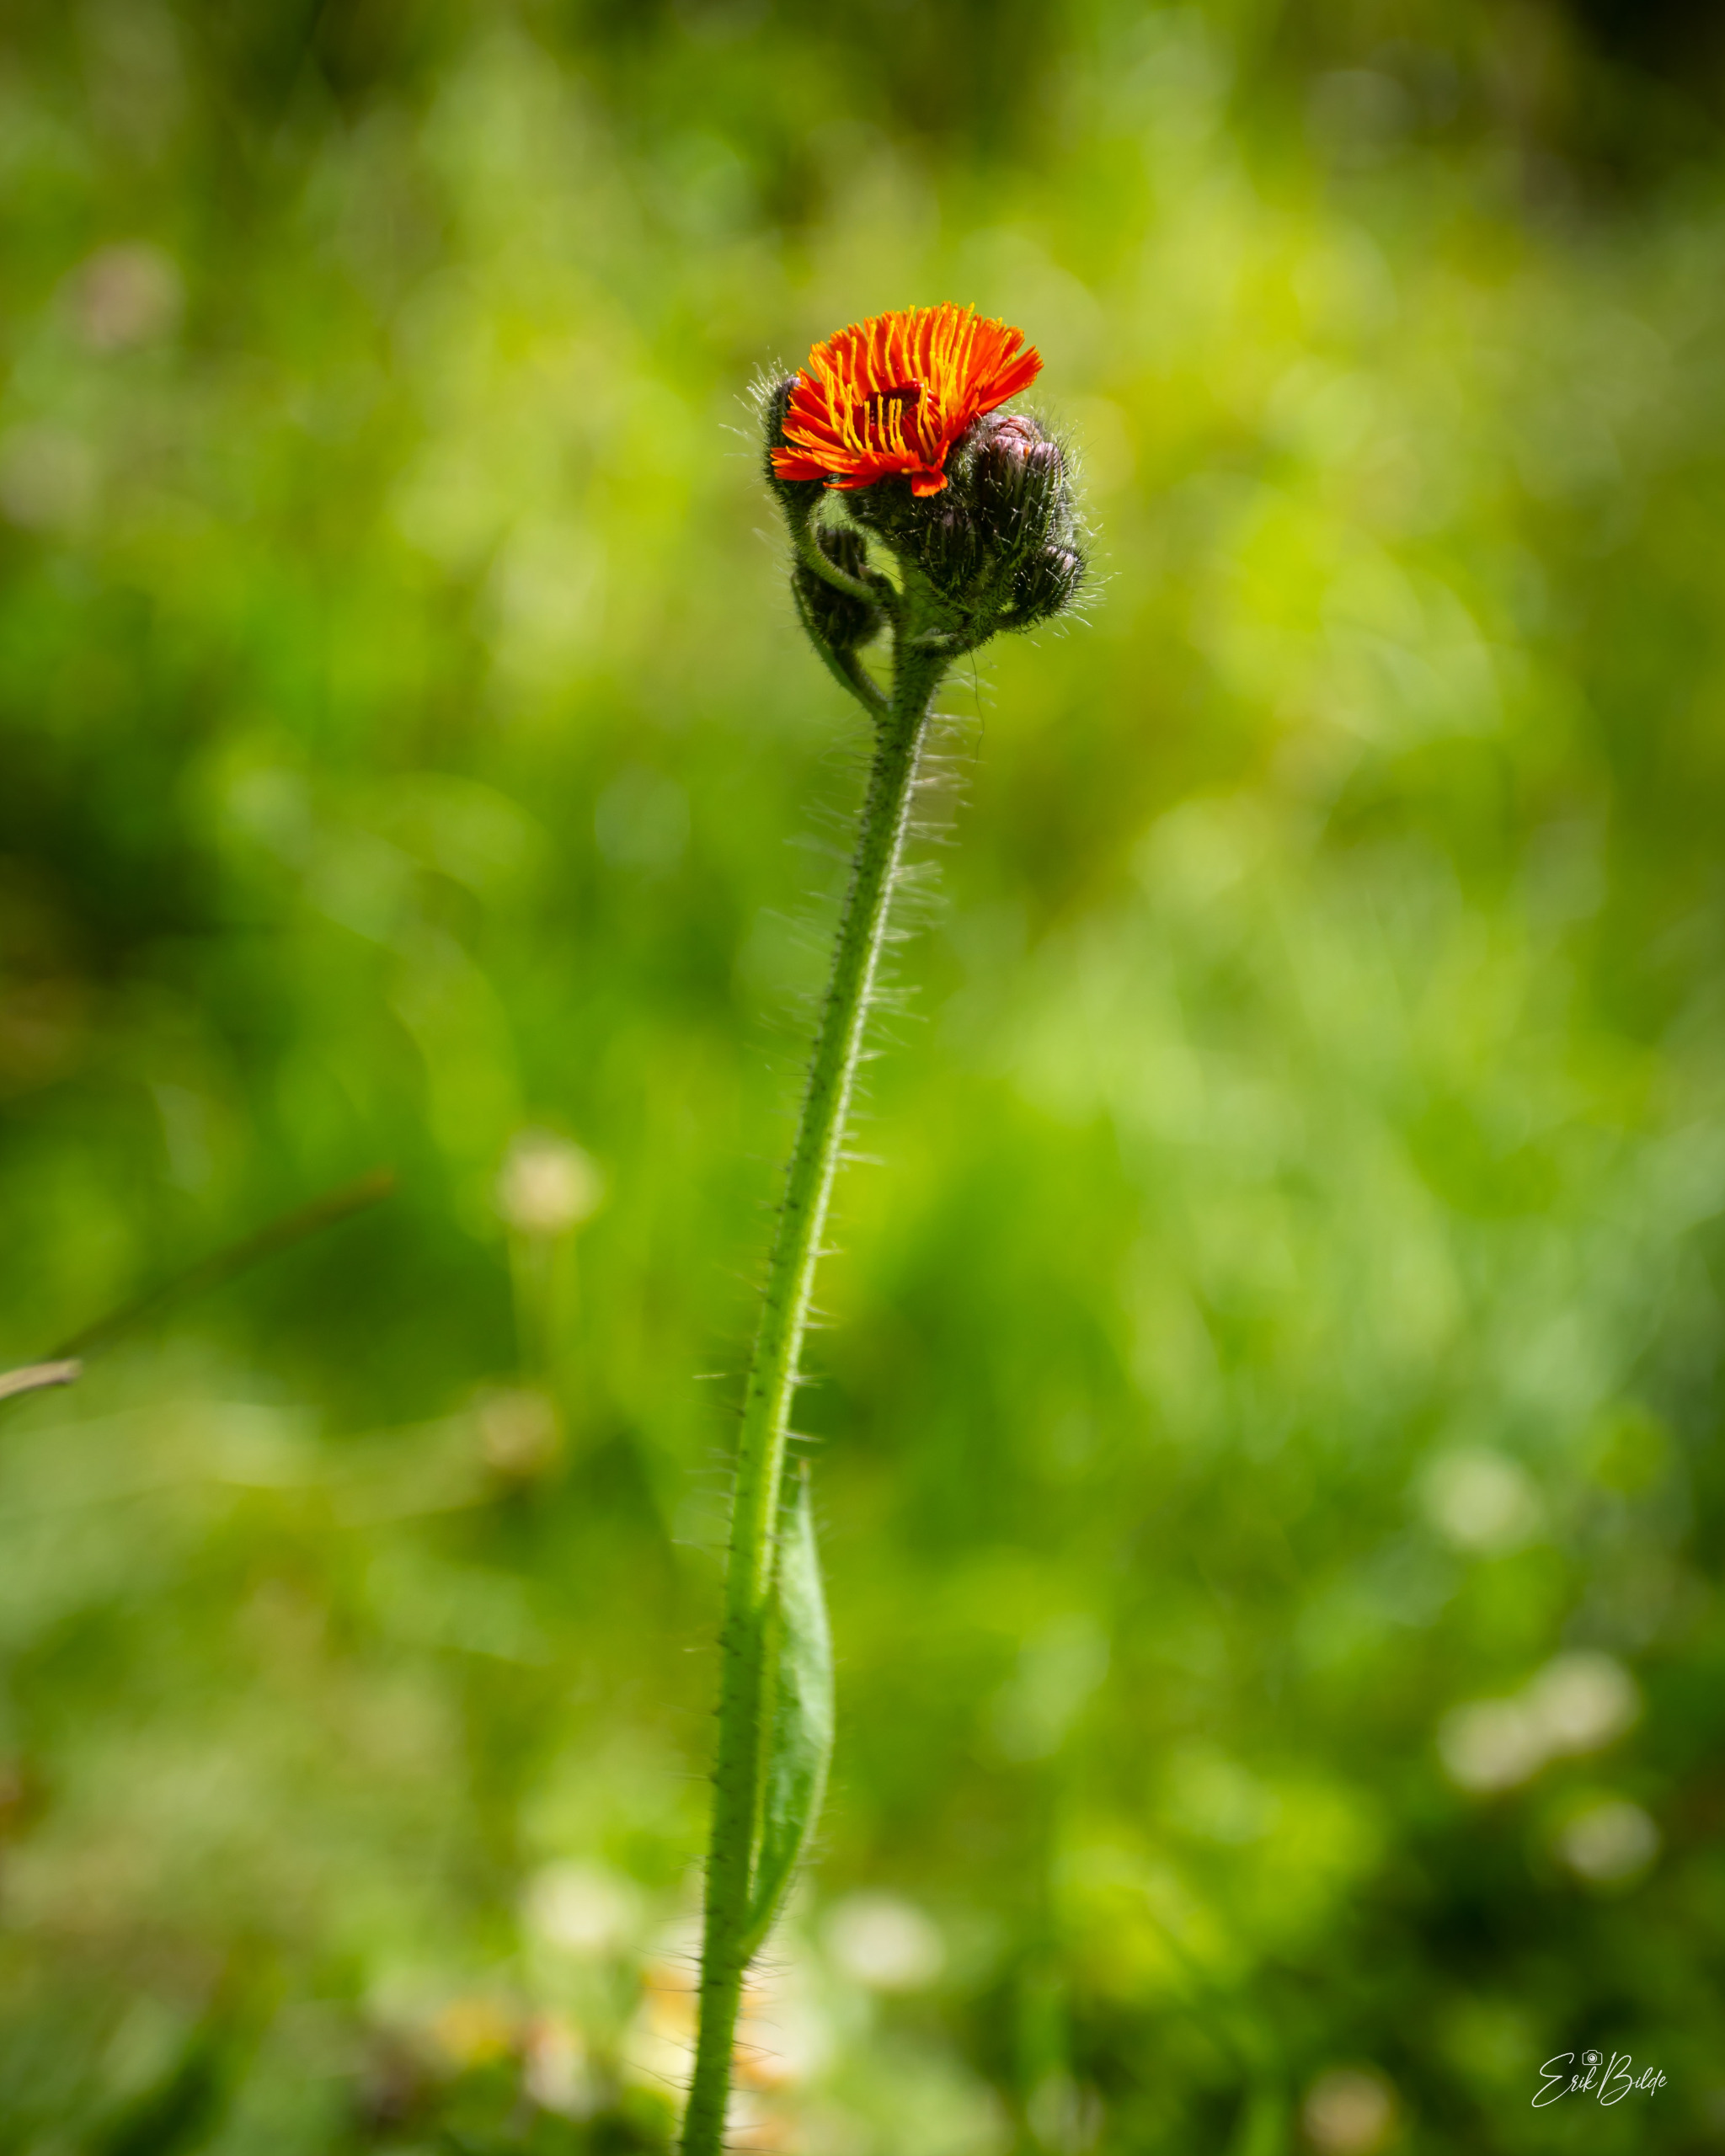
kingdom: Plantae
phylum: Tracheophyta
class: Magnoliopsida
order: Asterales
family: Asteraceae
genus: Pilosella
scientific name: Pilosella aurantiaca
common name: Pomerans-høgeurt
